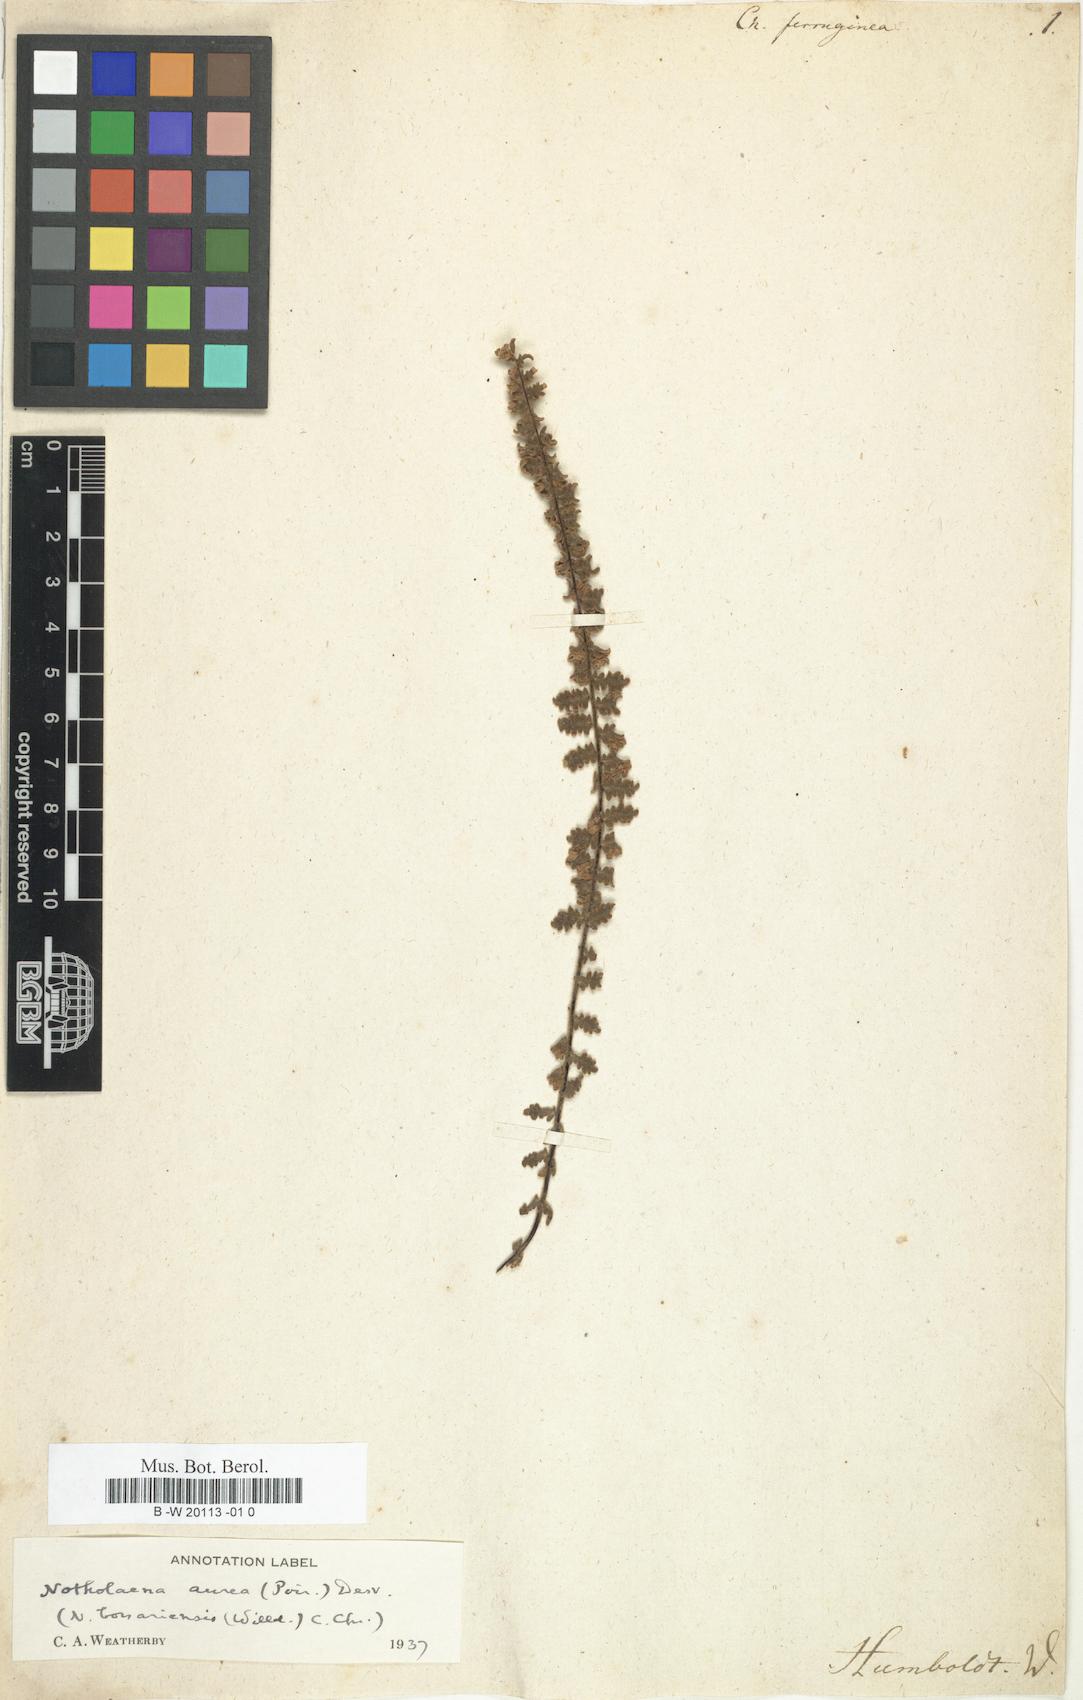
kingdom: Plantae
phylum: Tracheophyta
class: Polypodiopsida
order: Polypodiales
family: Pteridaceae
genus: Myriopteris
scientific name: Myriopteris aurea
